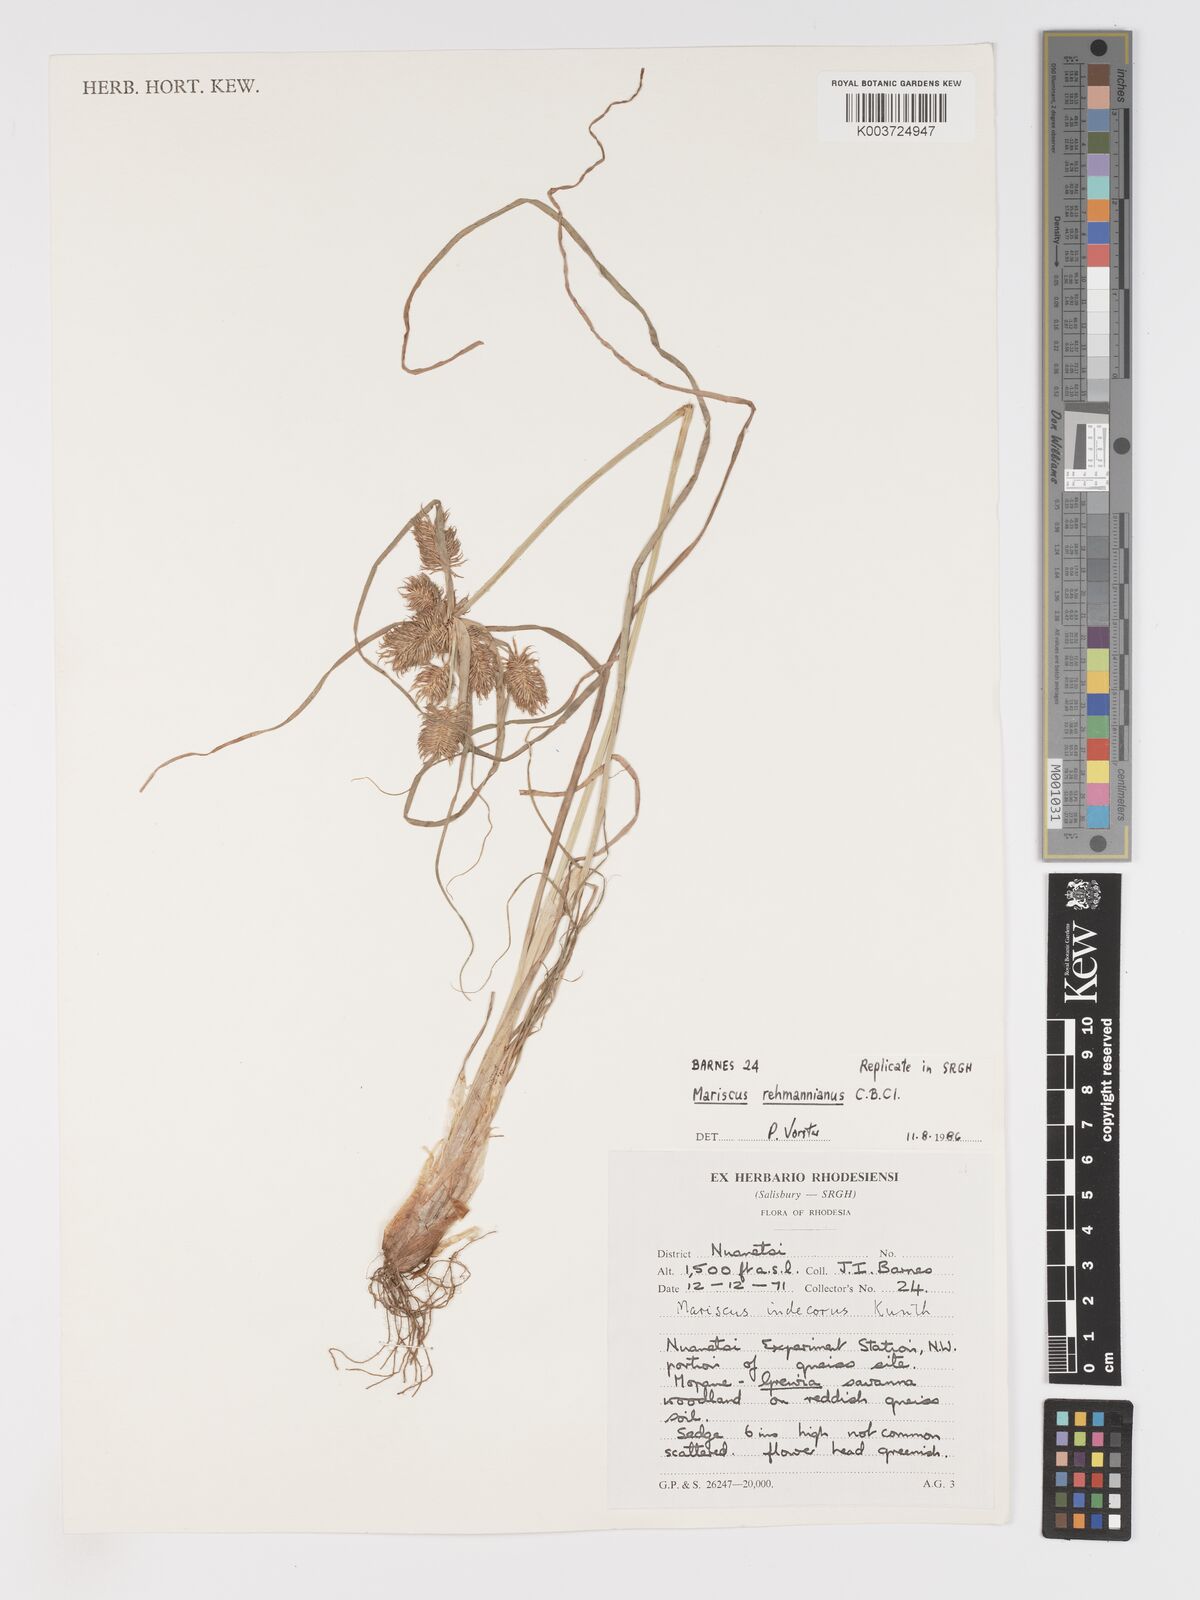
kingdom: Plantae
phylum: Tracheophyta
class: Liliopsida
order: Poales
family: Cyperaceae
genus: Cyperus
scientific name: Cyperus indecorus
